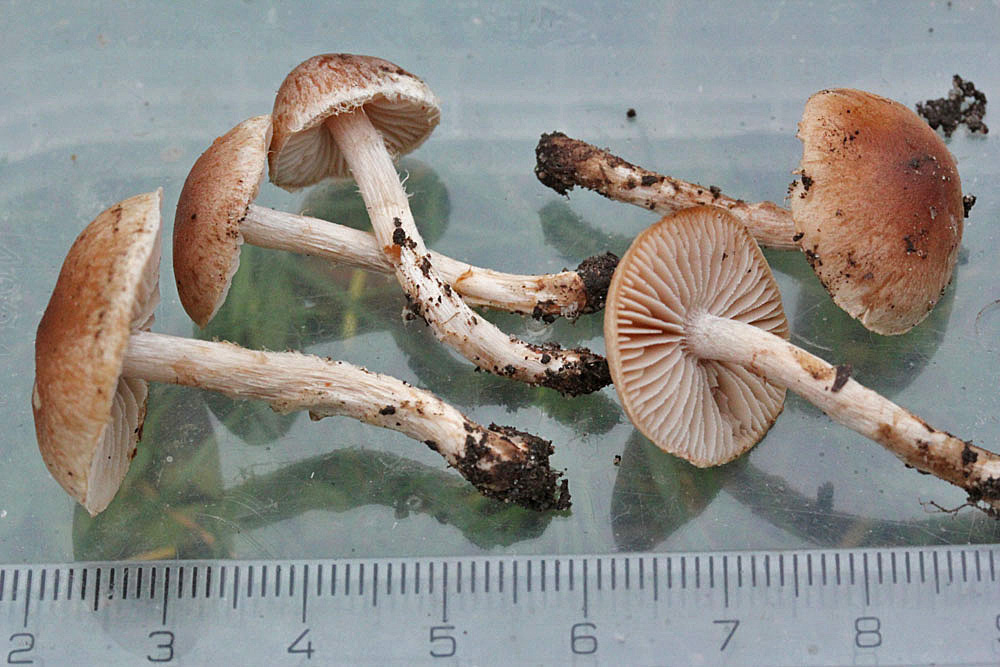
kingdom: Fungi
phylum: Basidiomycota
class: Agaricomycetes
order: Agaricales
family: Hymenogastraceae
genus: Hebeloma
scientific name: Hebeloma mesophaeum
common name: lerbrun tåreblad
